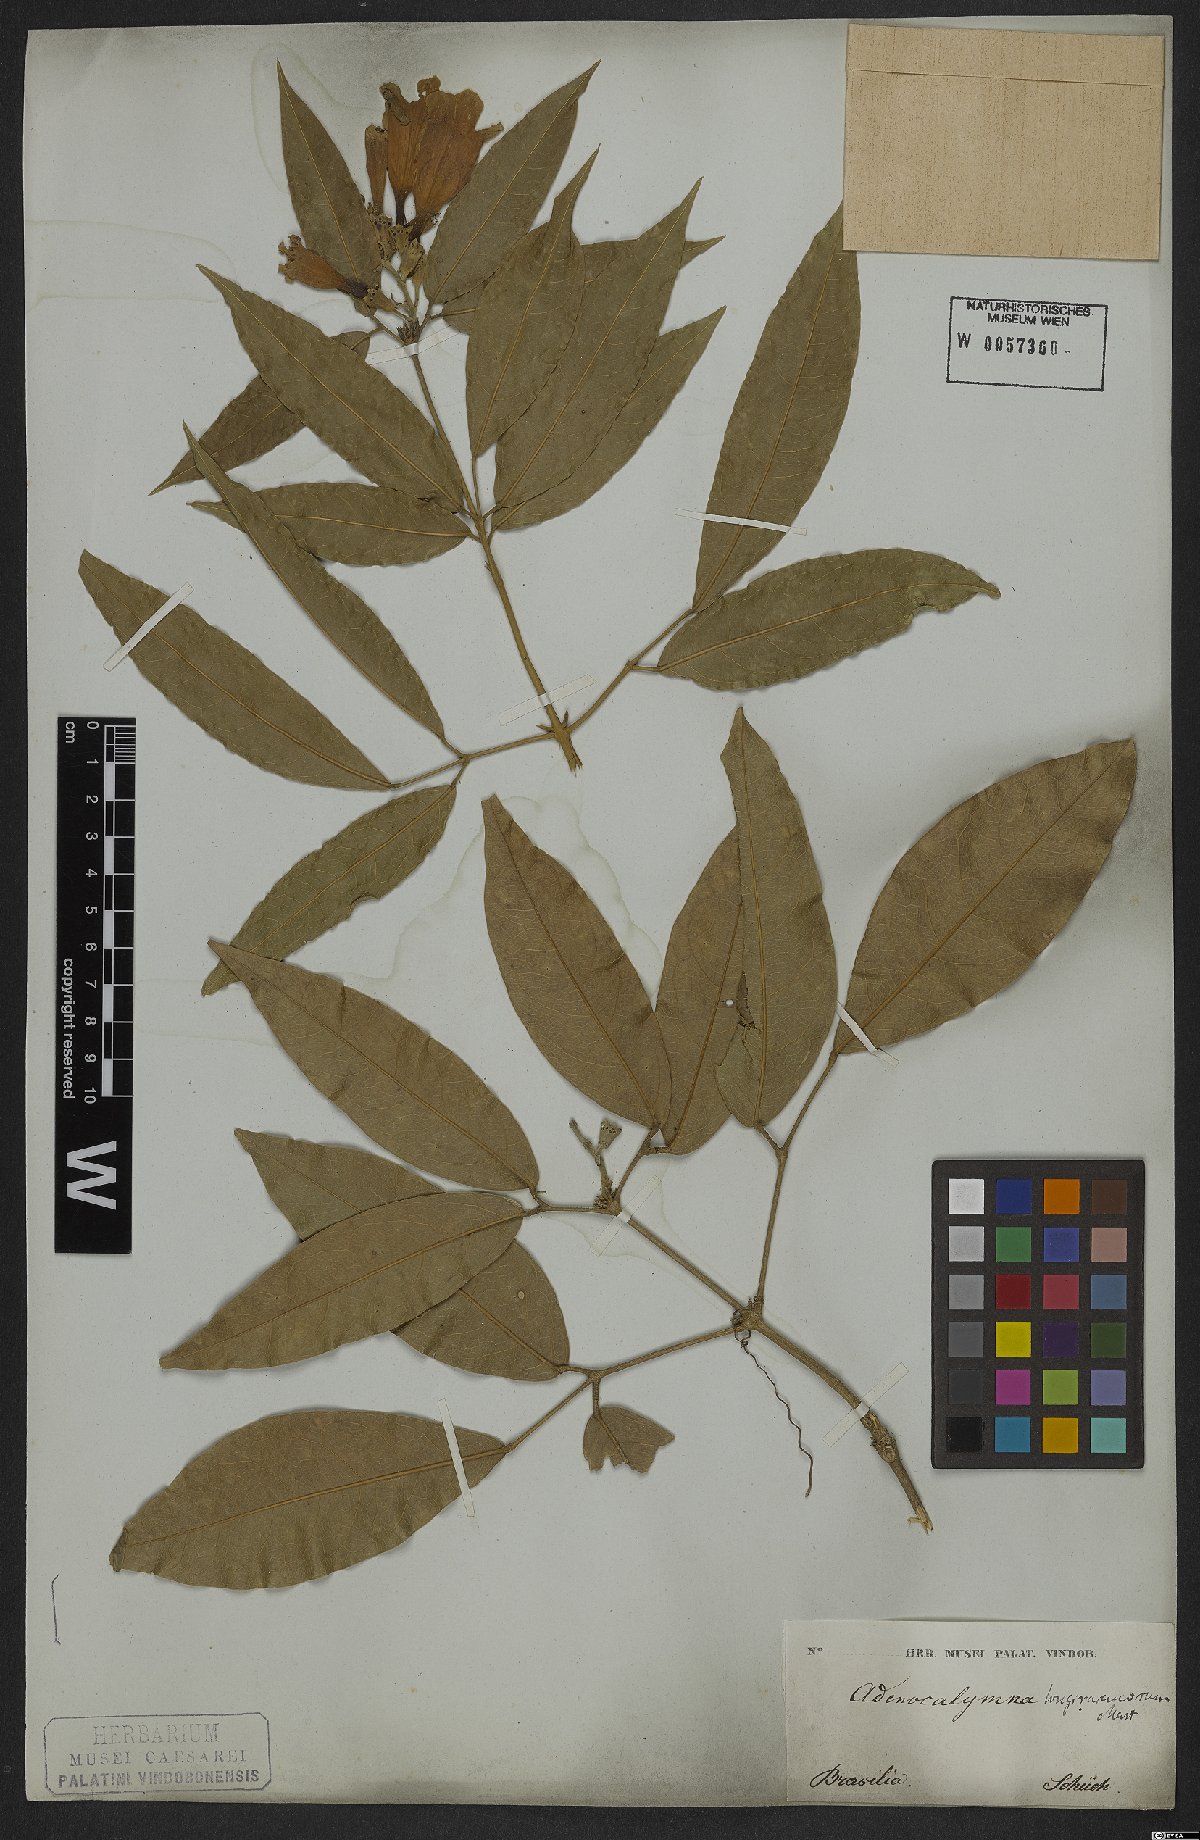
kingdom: Plantae
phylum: Tracheophyta
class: Magnoliopsida
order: Lamiales
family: Bignoniaceae
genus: Adenocalymma
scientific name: Adenocalymma trifoliatum
